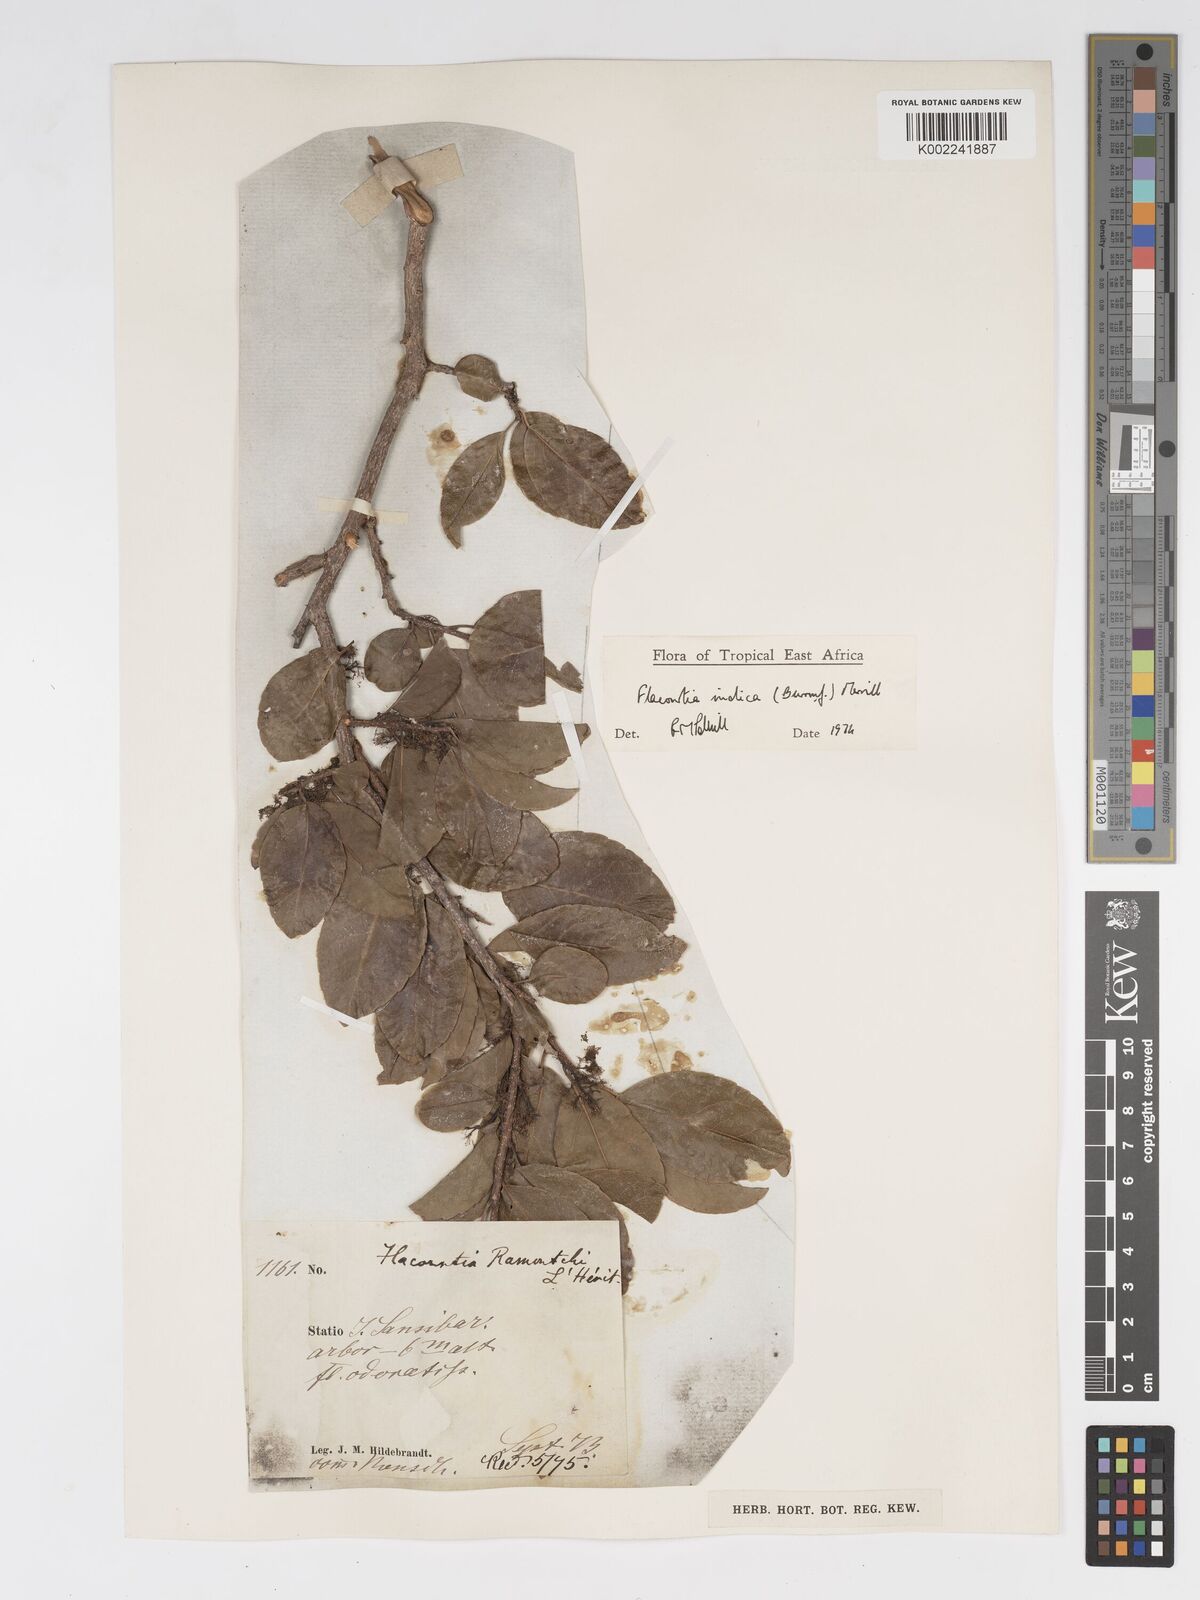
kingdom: Plantae
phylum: Tracheophyta
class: Magnoliopsida
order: Malpighiales
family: Salicaceae
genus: Flacourtia
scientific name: Flacourtia indica
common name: Governor's plum
